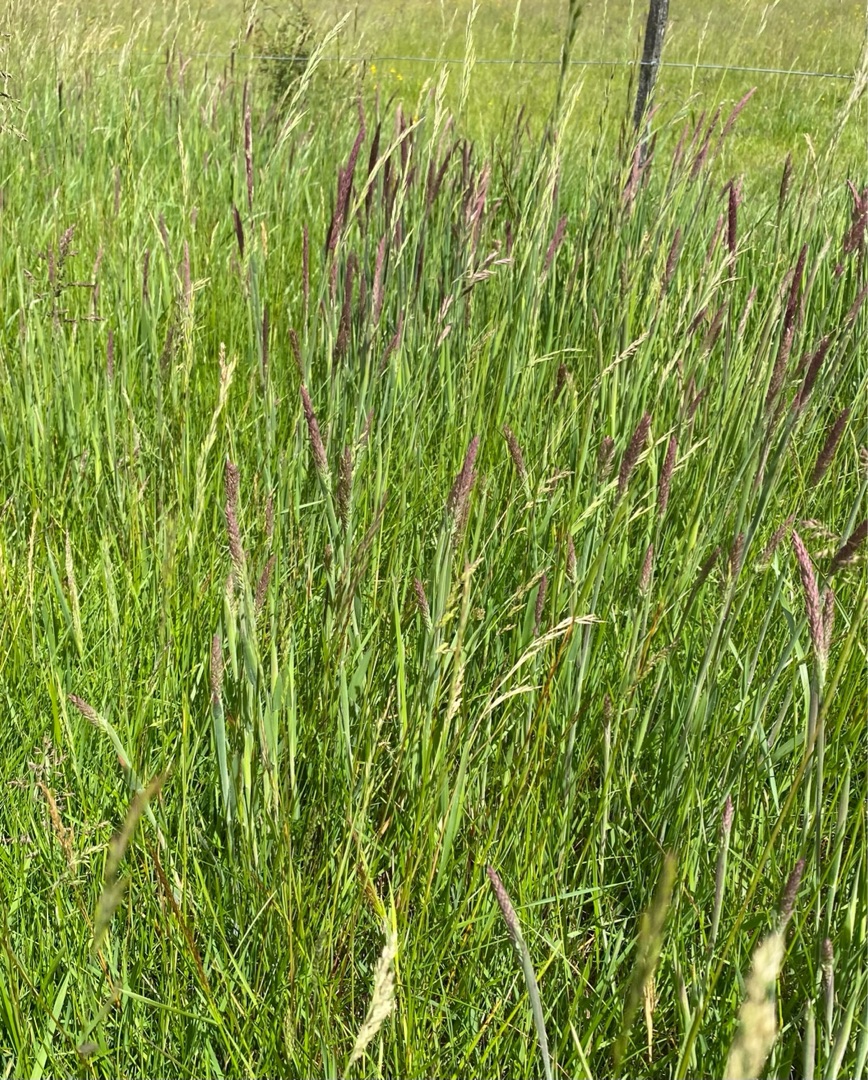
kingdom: Plantae
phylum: Tracheophyta
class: Liliopsida
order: Poales
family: Poaceae
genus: Holcus
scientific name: Holcus lanatus
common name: Fløjlsgræs
